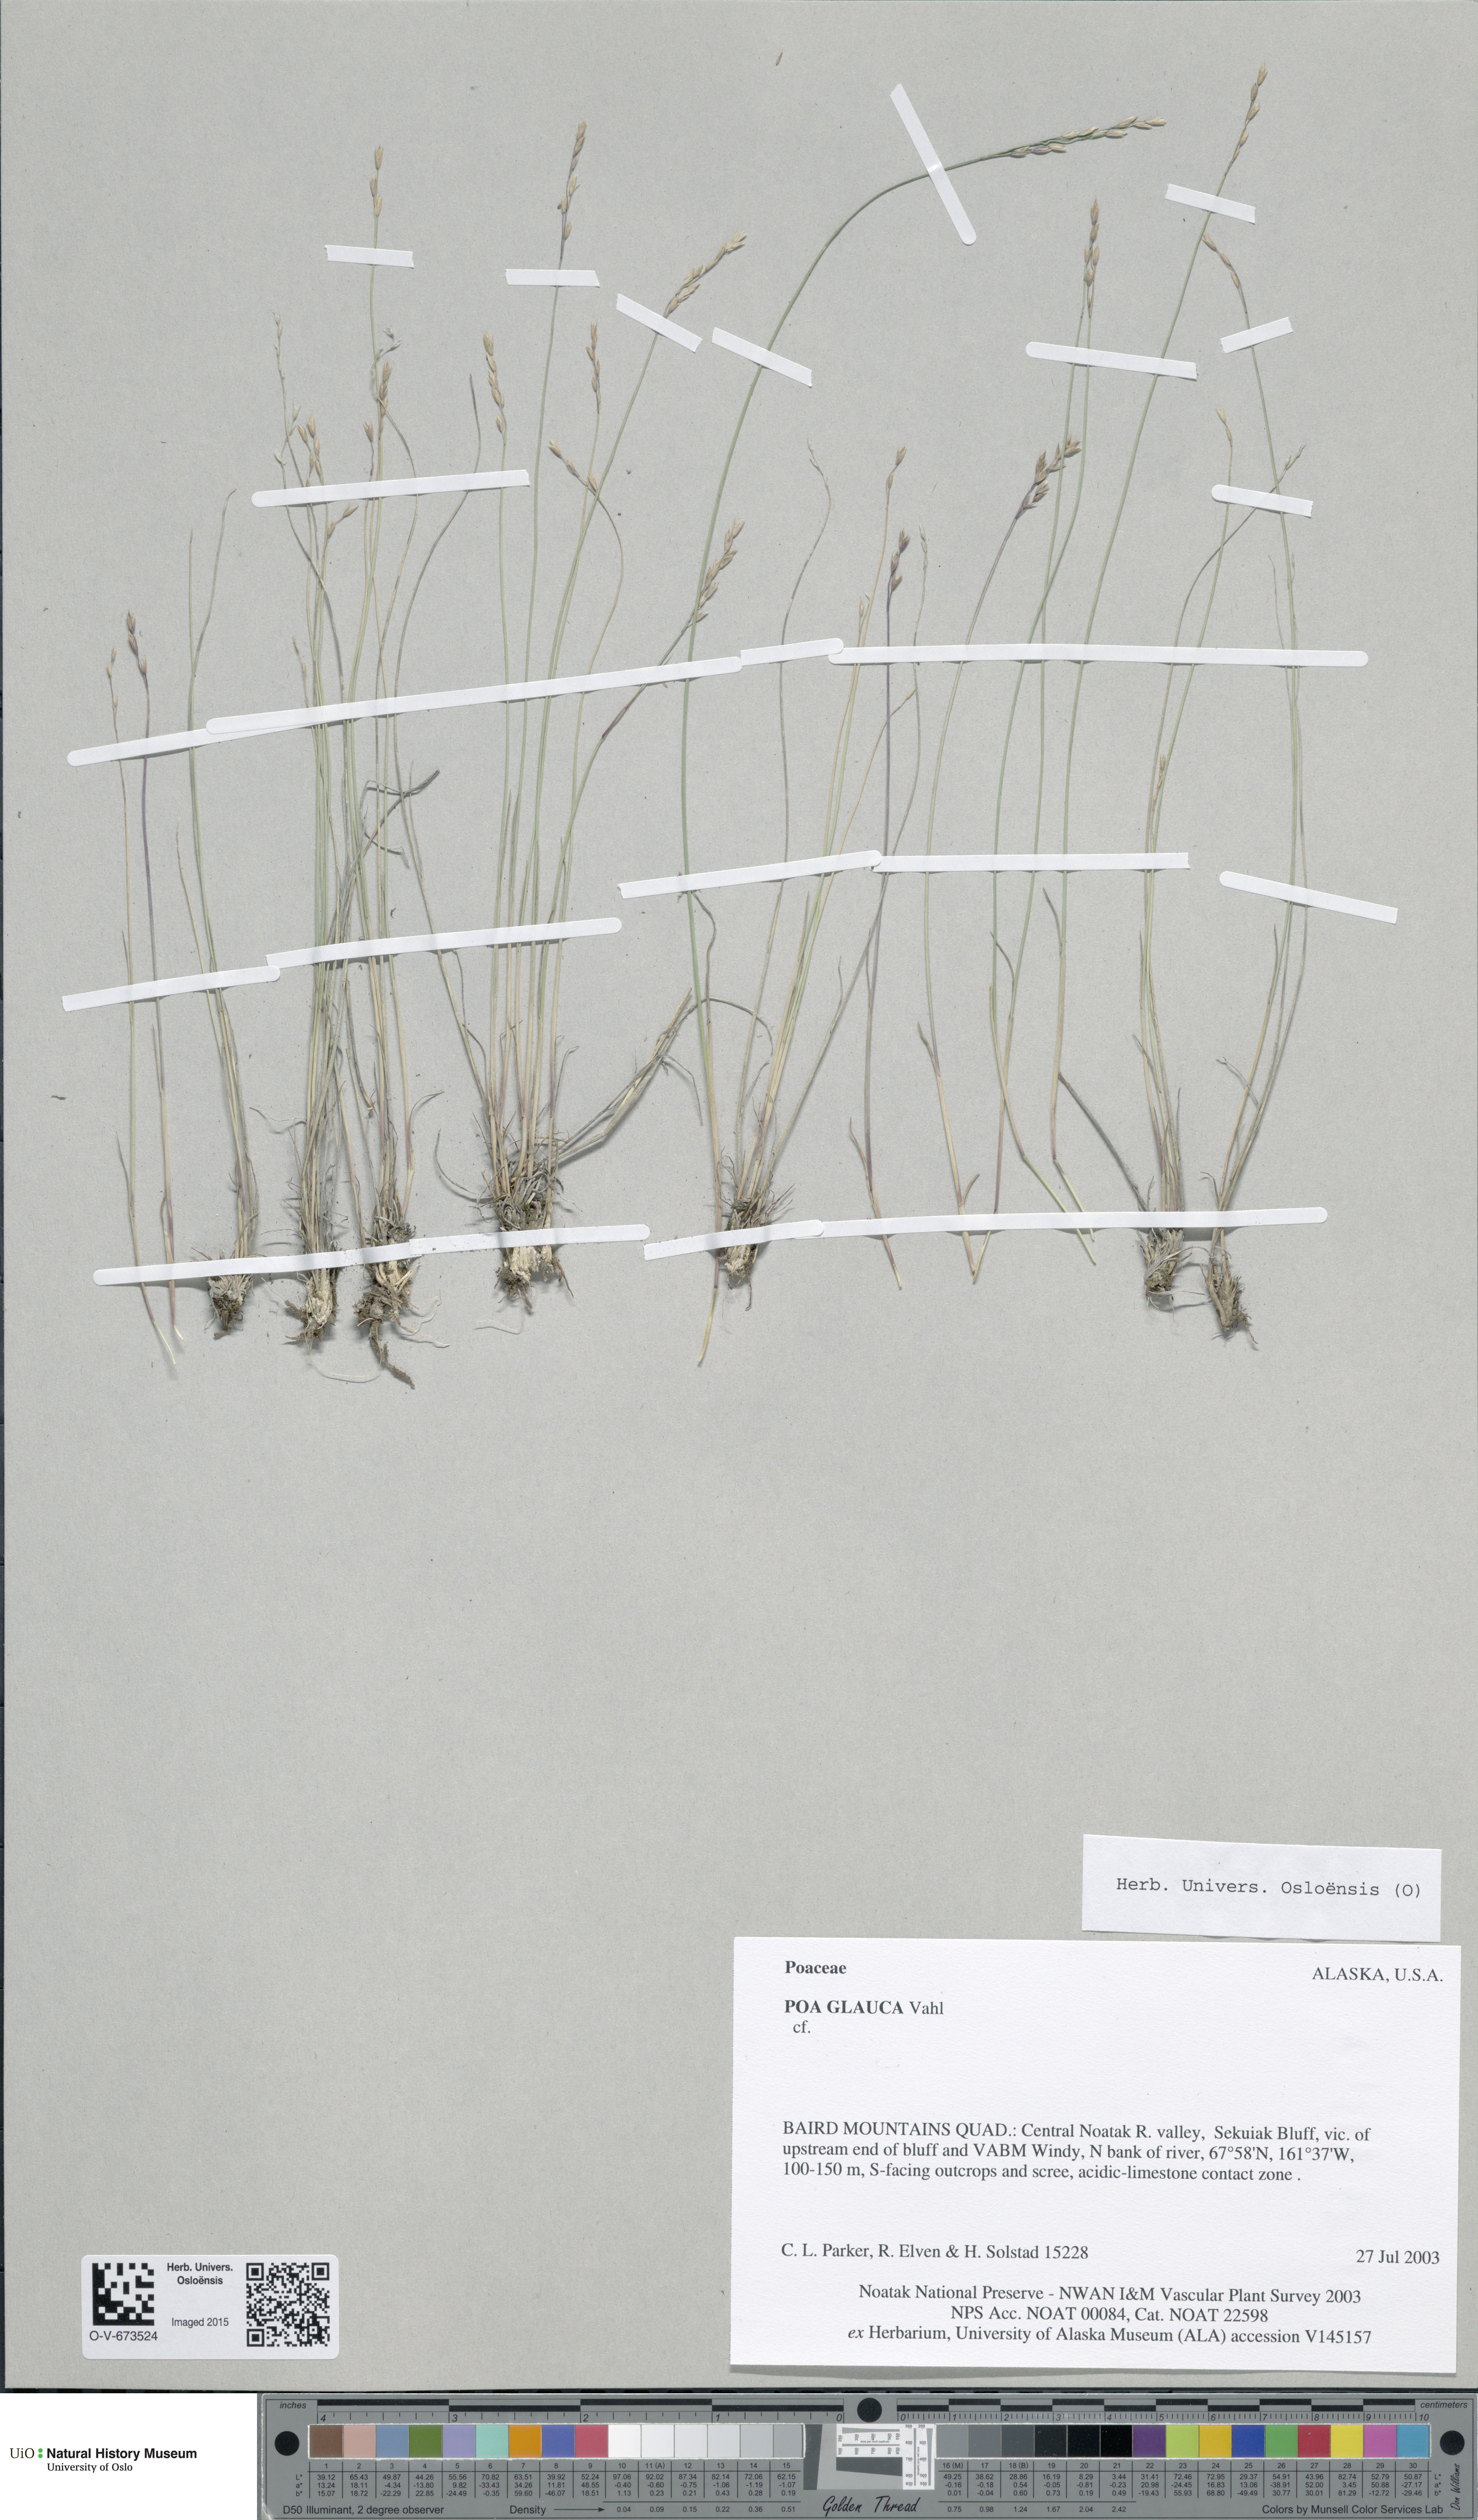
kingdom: Plantae
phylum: Tracheophyta
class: Liliopsida
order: Poales
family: Poaceae
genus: Poa
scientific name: Poa glauca
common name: Glaucous bluegrass
